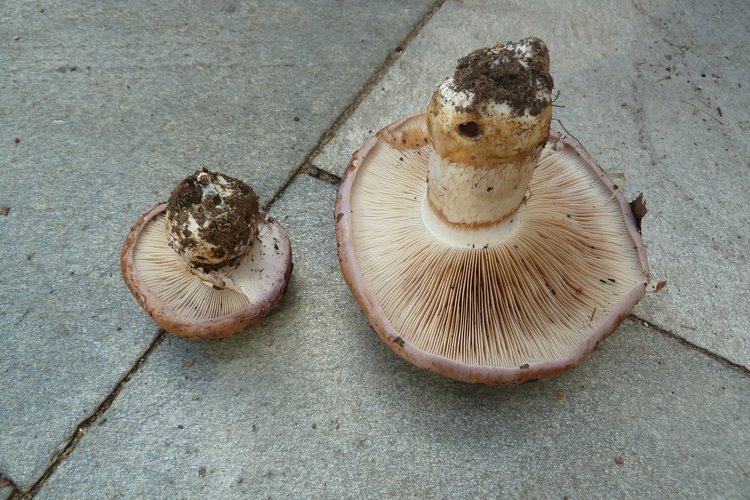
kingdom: Fungi
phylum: Basidiomycota
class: Agaricomycetes
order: Agaricales
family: Cortinariaceae
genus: Phlegmacium
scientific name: Phlegmacium balteatocumatile
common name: violettrådet slørhat
